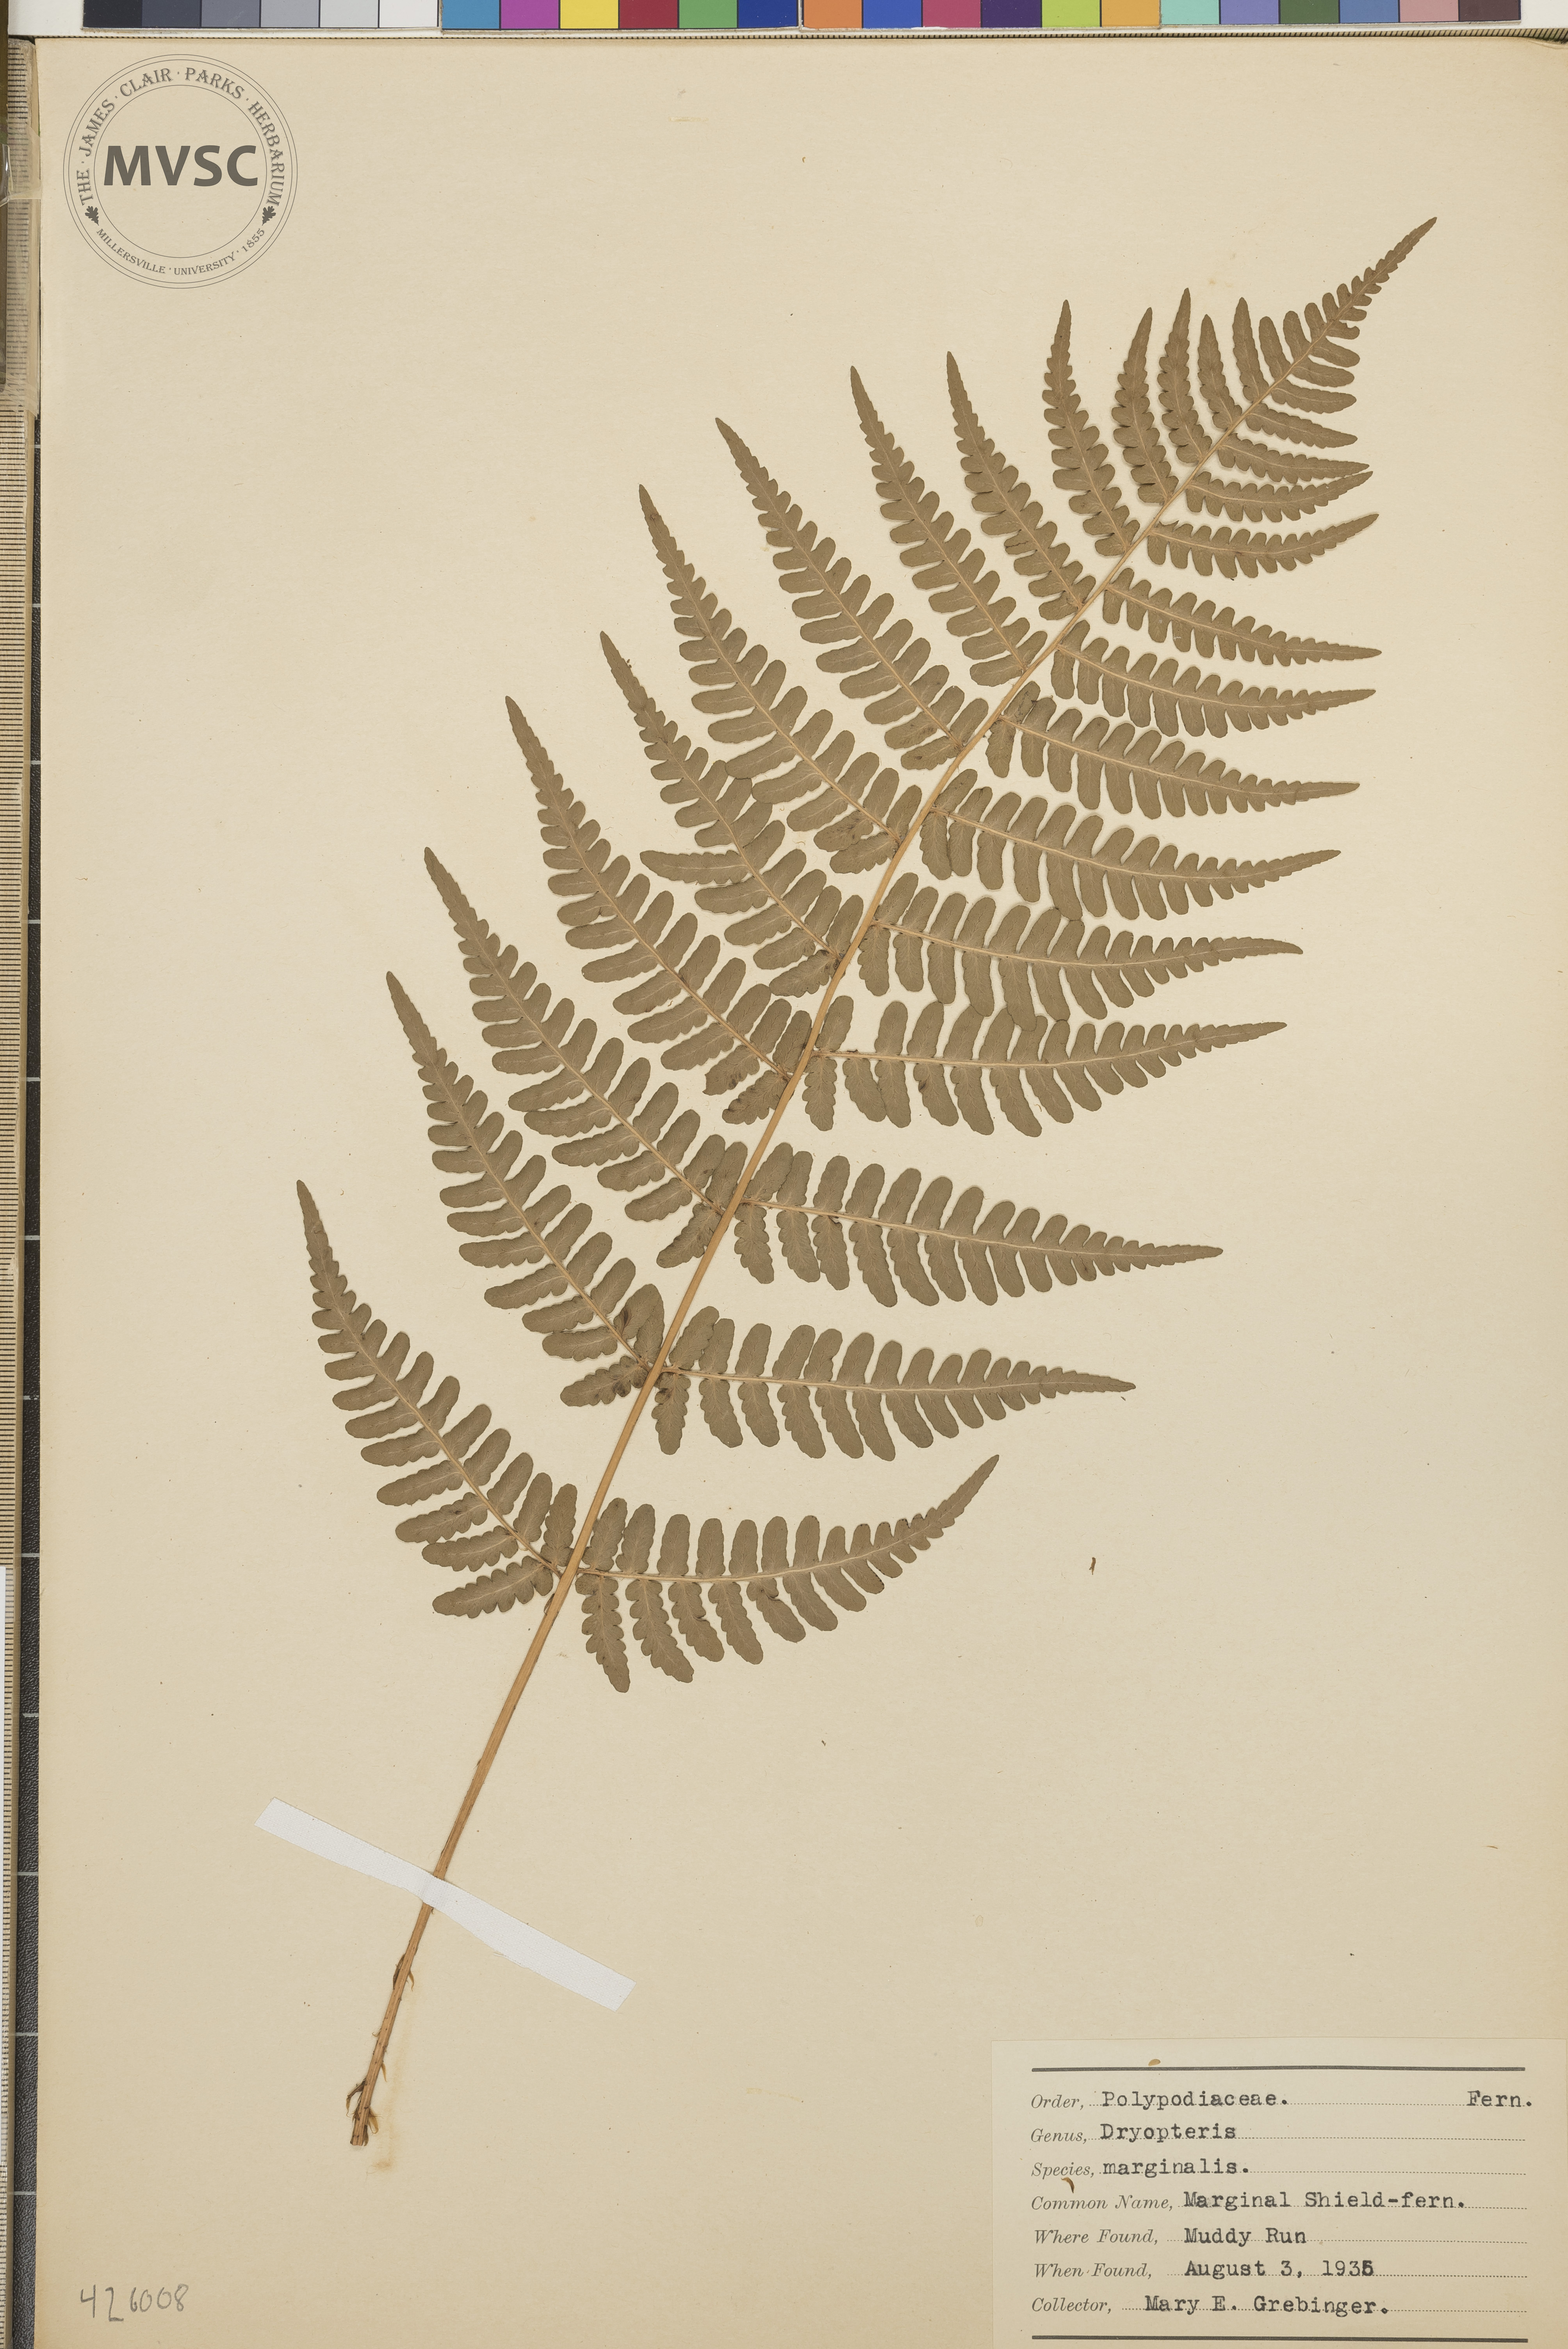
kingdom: Plantae
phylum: Tracheophyta
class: Polypodiopsida
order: Polypodiales
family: Dryopteridaceae
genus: Dryopteris
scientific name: Dryopteris marginalis
